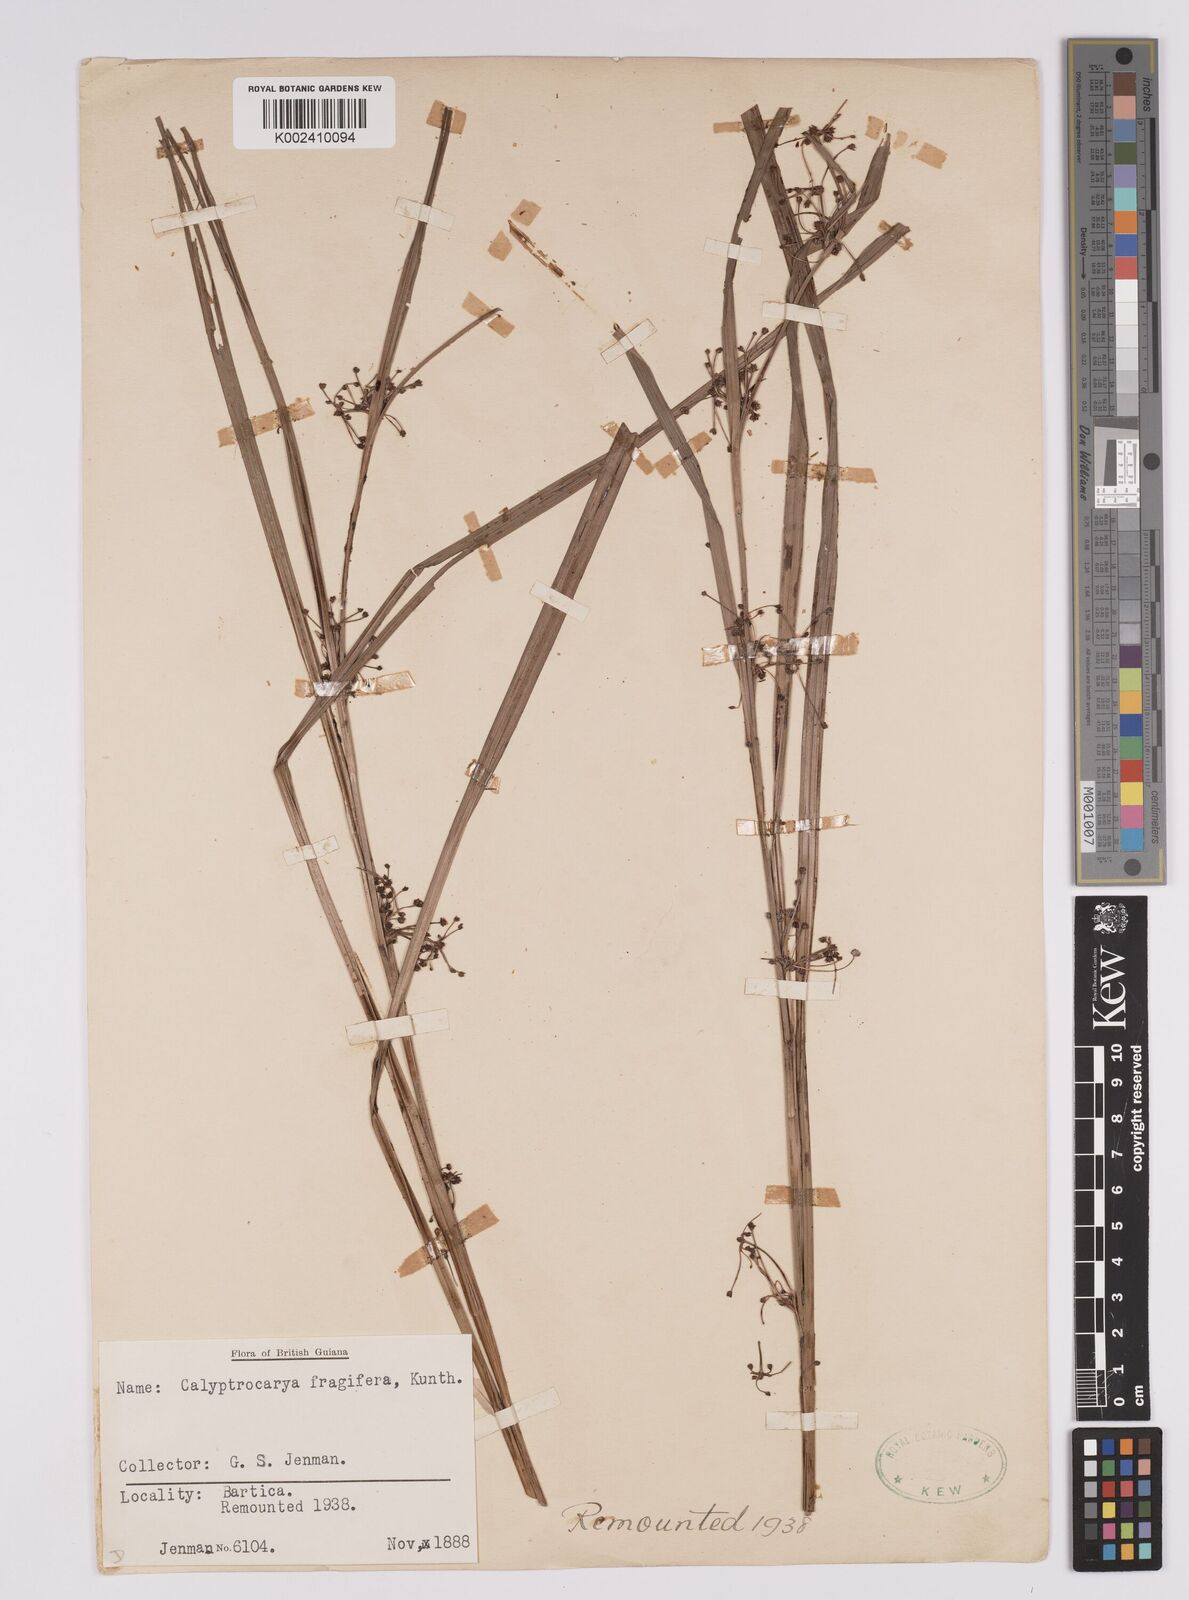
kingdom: Plantae
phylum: Tracheophyta
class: Liliopsida
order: Poales
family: Cyperaceae
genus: Calyptrocarya
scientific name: Calyptrocarya
